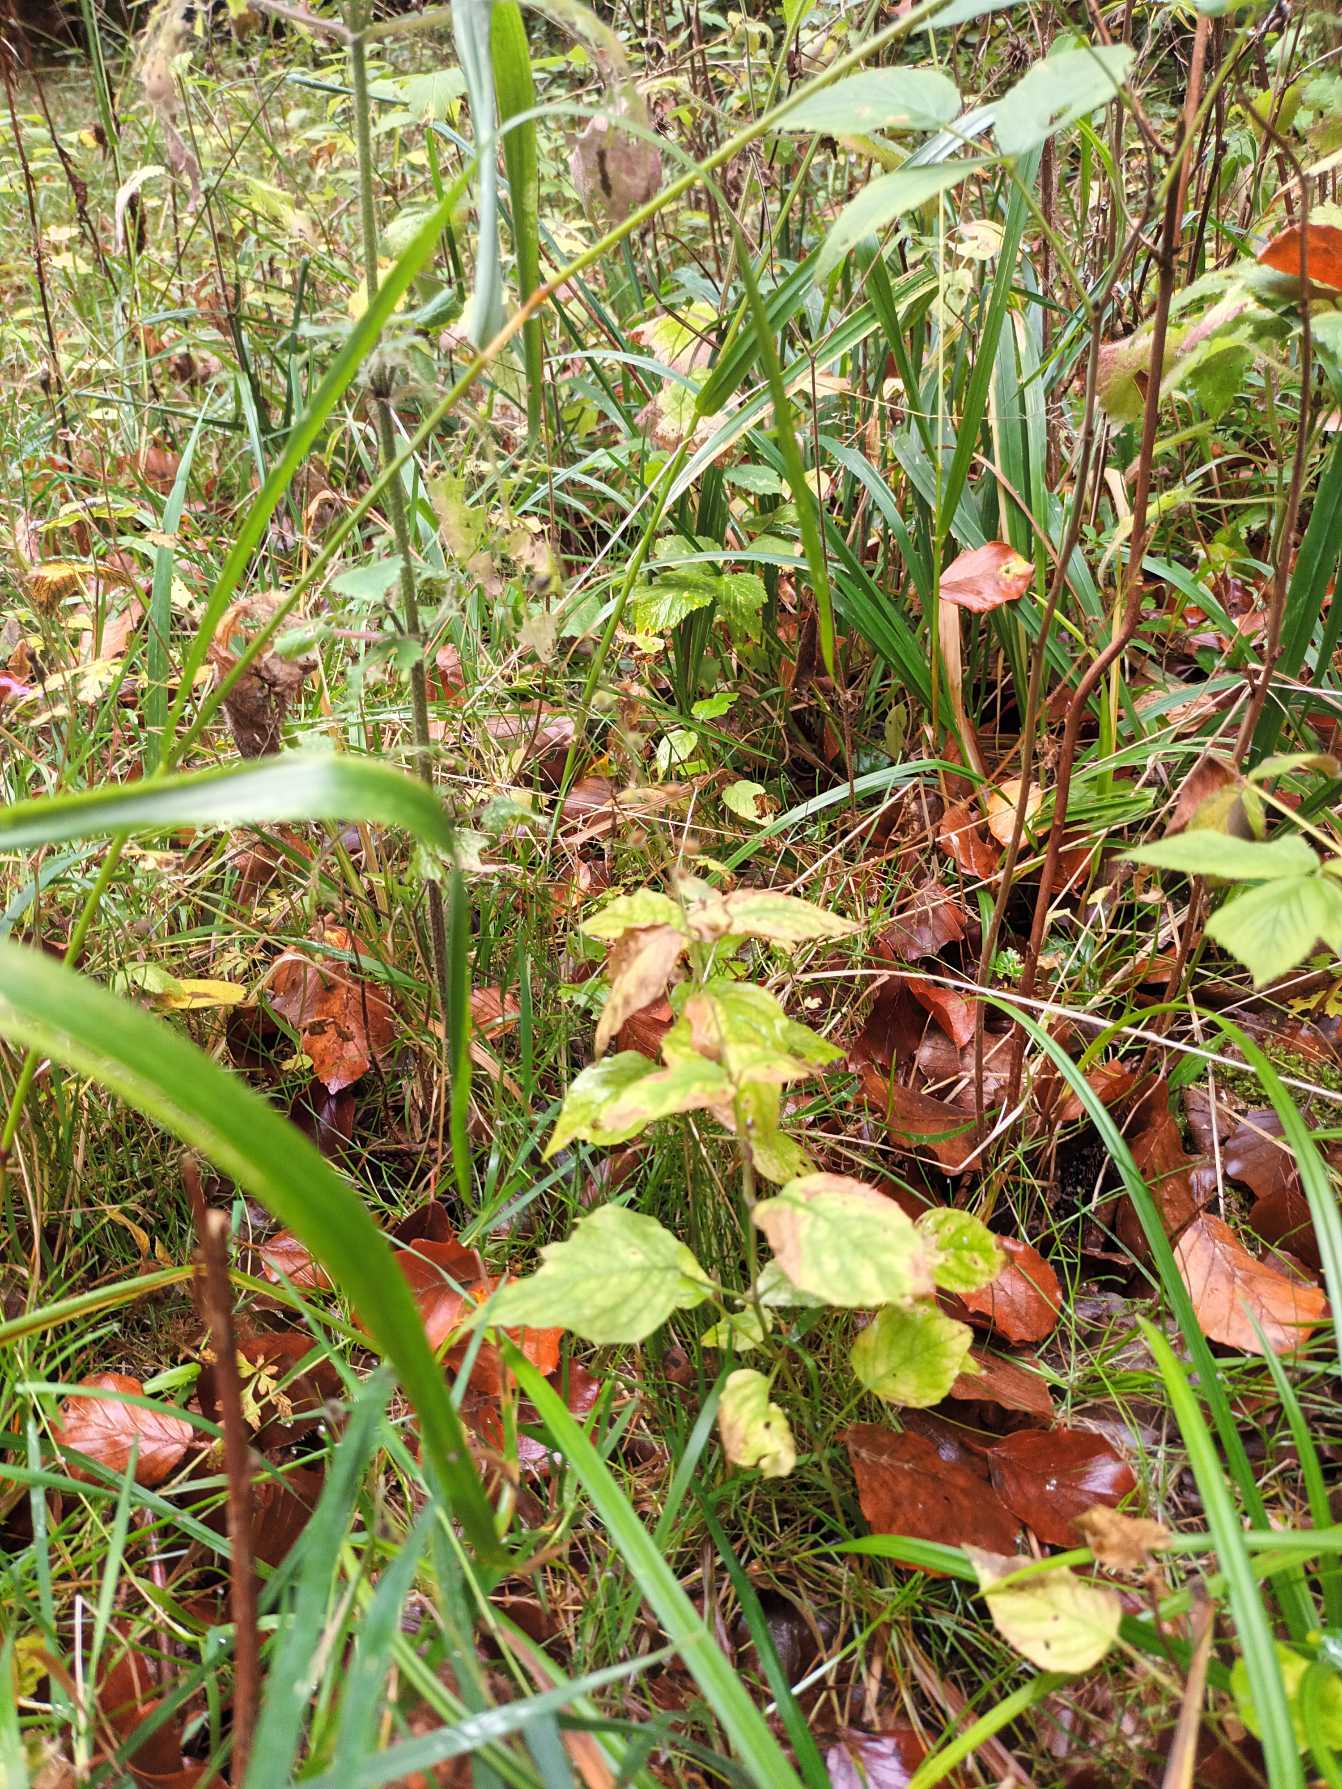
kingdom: Plantae
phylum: Tracheophyta
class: Magnoliopsida
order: Myrtales
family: Onagraceae
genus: Circaea
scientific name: Circaea lutetiana
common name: Dunet steffensurt
